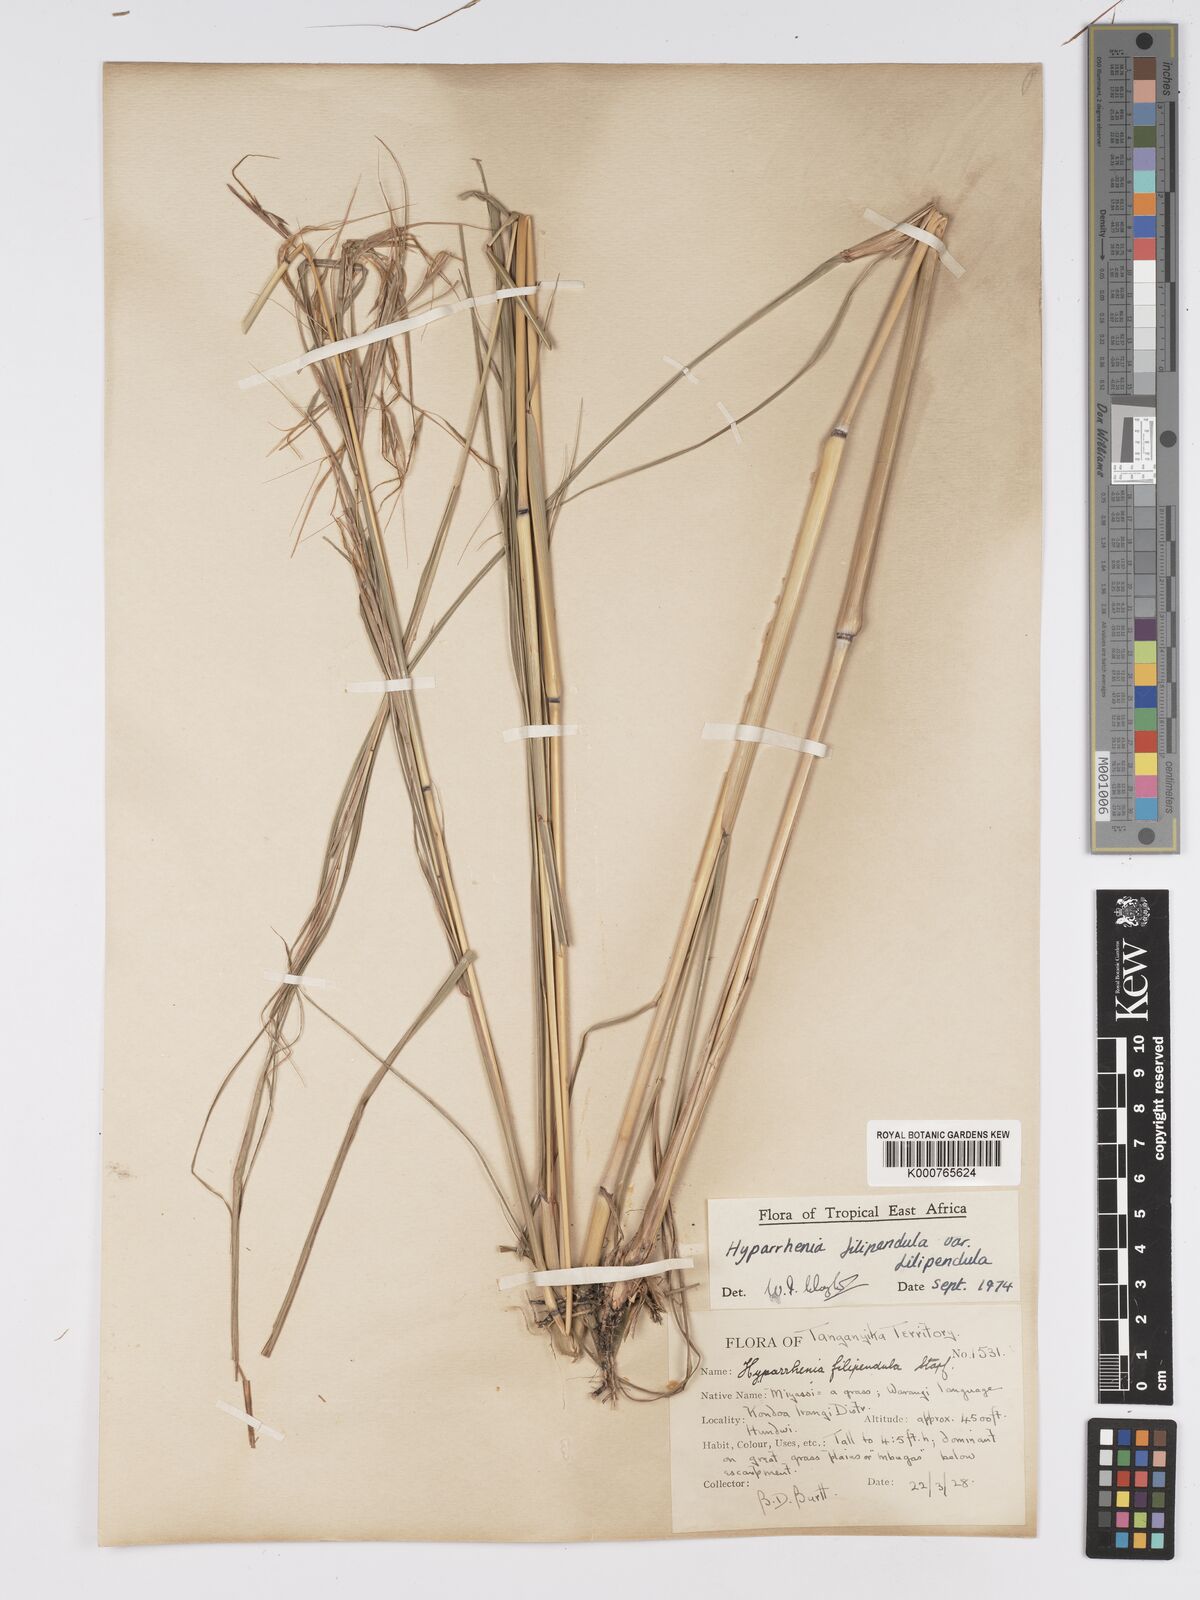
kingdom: Plantae
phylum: Tracheophyta
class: Liliopsida
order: Poales
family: Poaceae
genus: Hyparrhenia
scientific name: Hyparrhenia filipendula
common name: Tambookie grass
